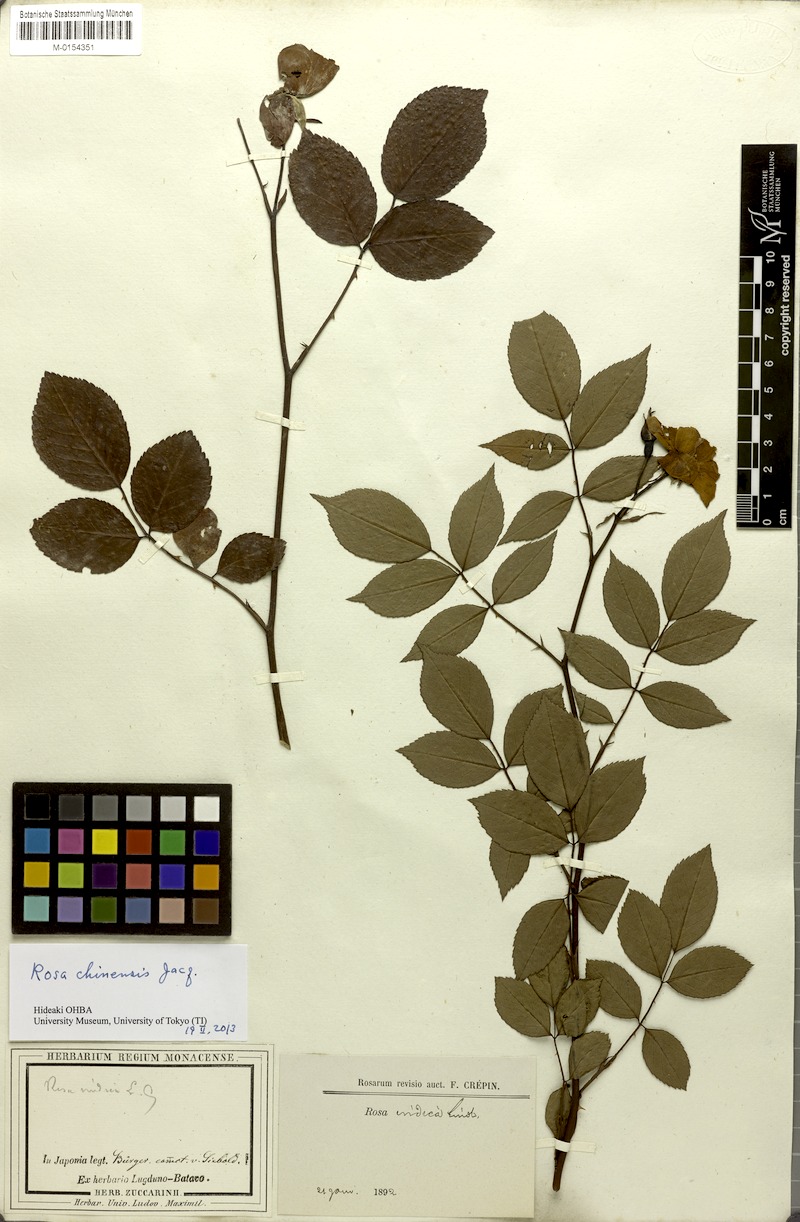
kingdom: Plantae
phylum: Tracheophyta
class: Magnoliopsida
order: Rosales
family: Rosaceae
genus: Rosa
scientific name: Rosa chinensis
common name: China rose
